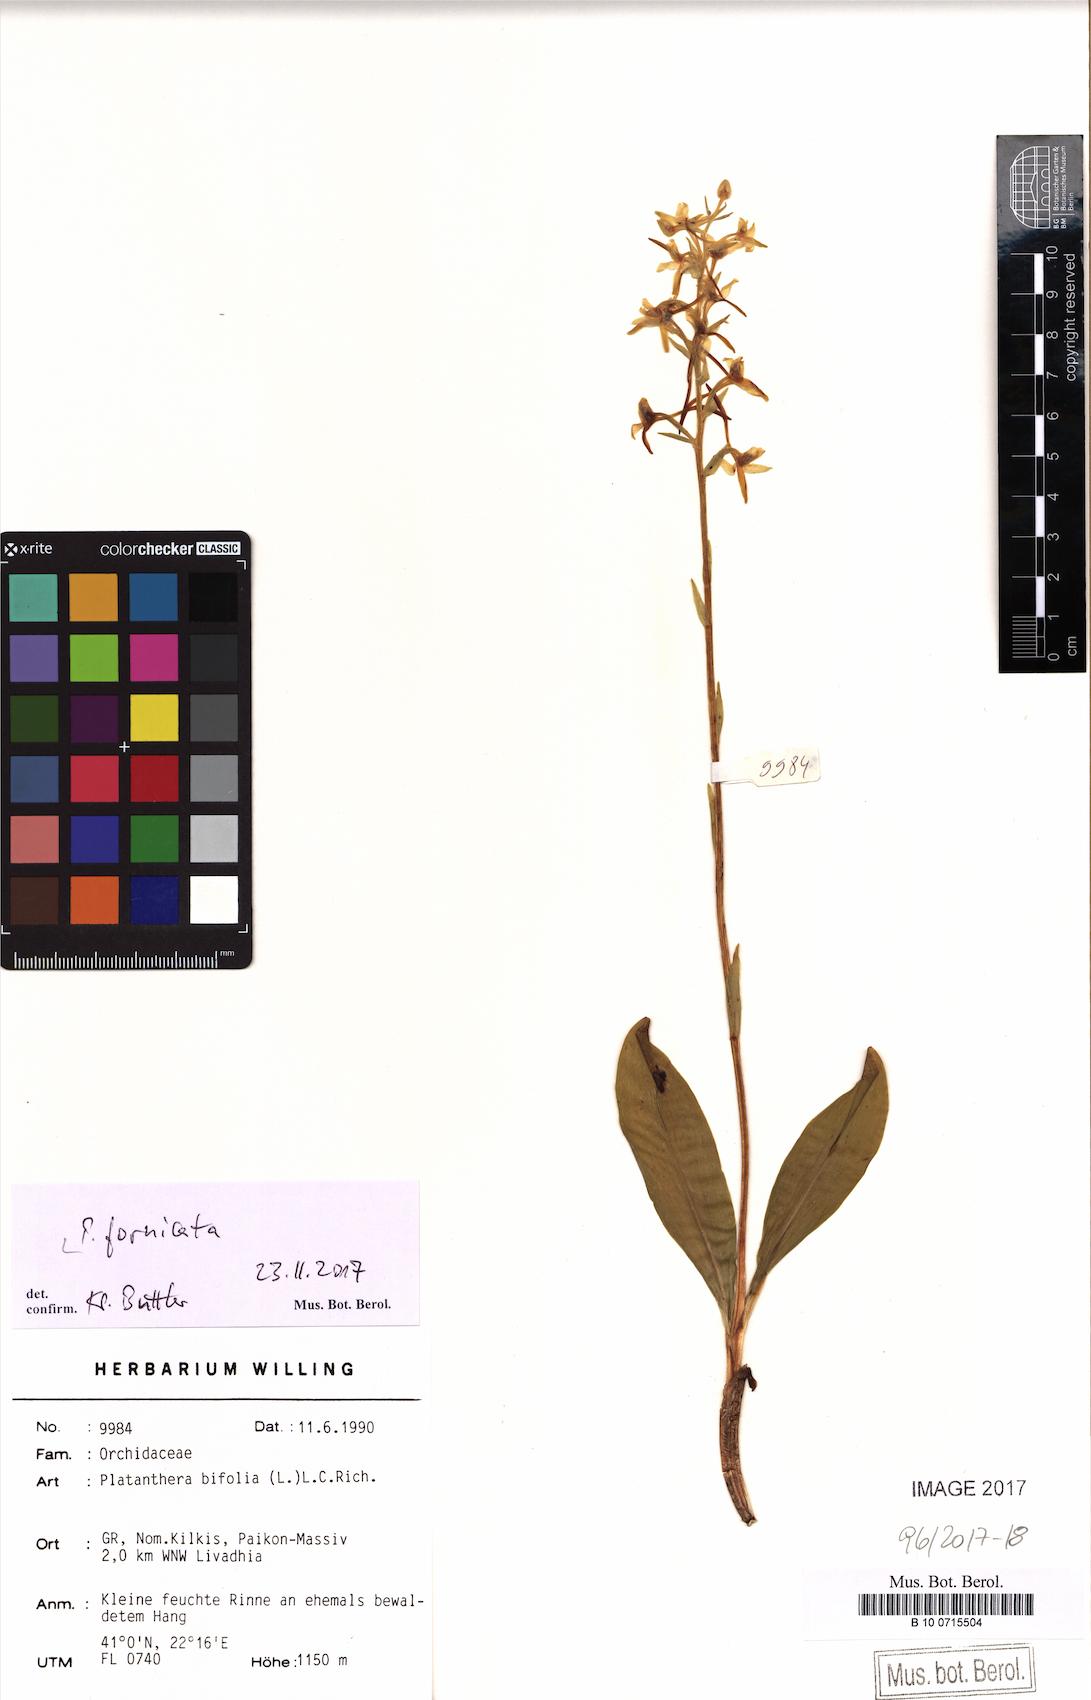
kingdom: Plantae
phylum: Tracheophyta
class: Liliopsida
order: Asparagales
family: Orchidaceae
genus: Platanthera
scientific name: Platanthera bifolia
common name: Lesser butterfly-orchid
